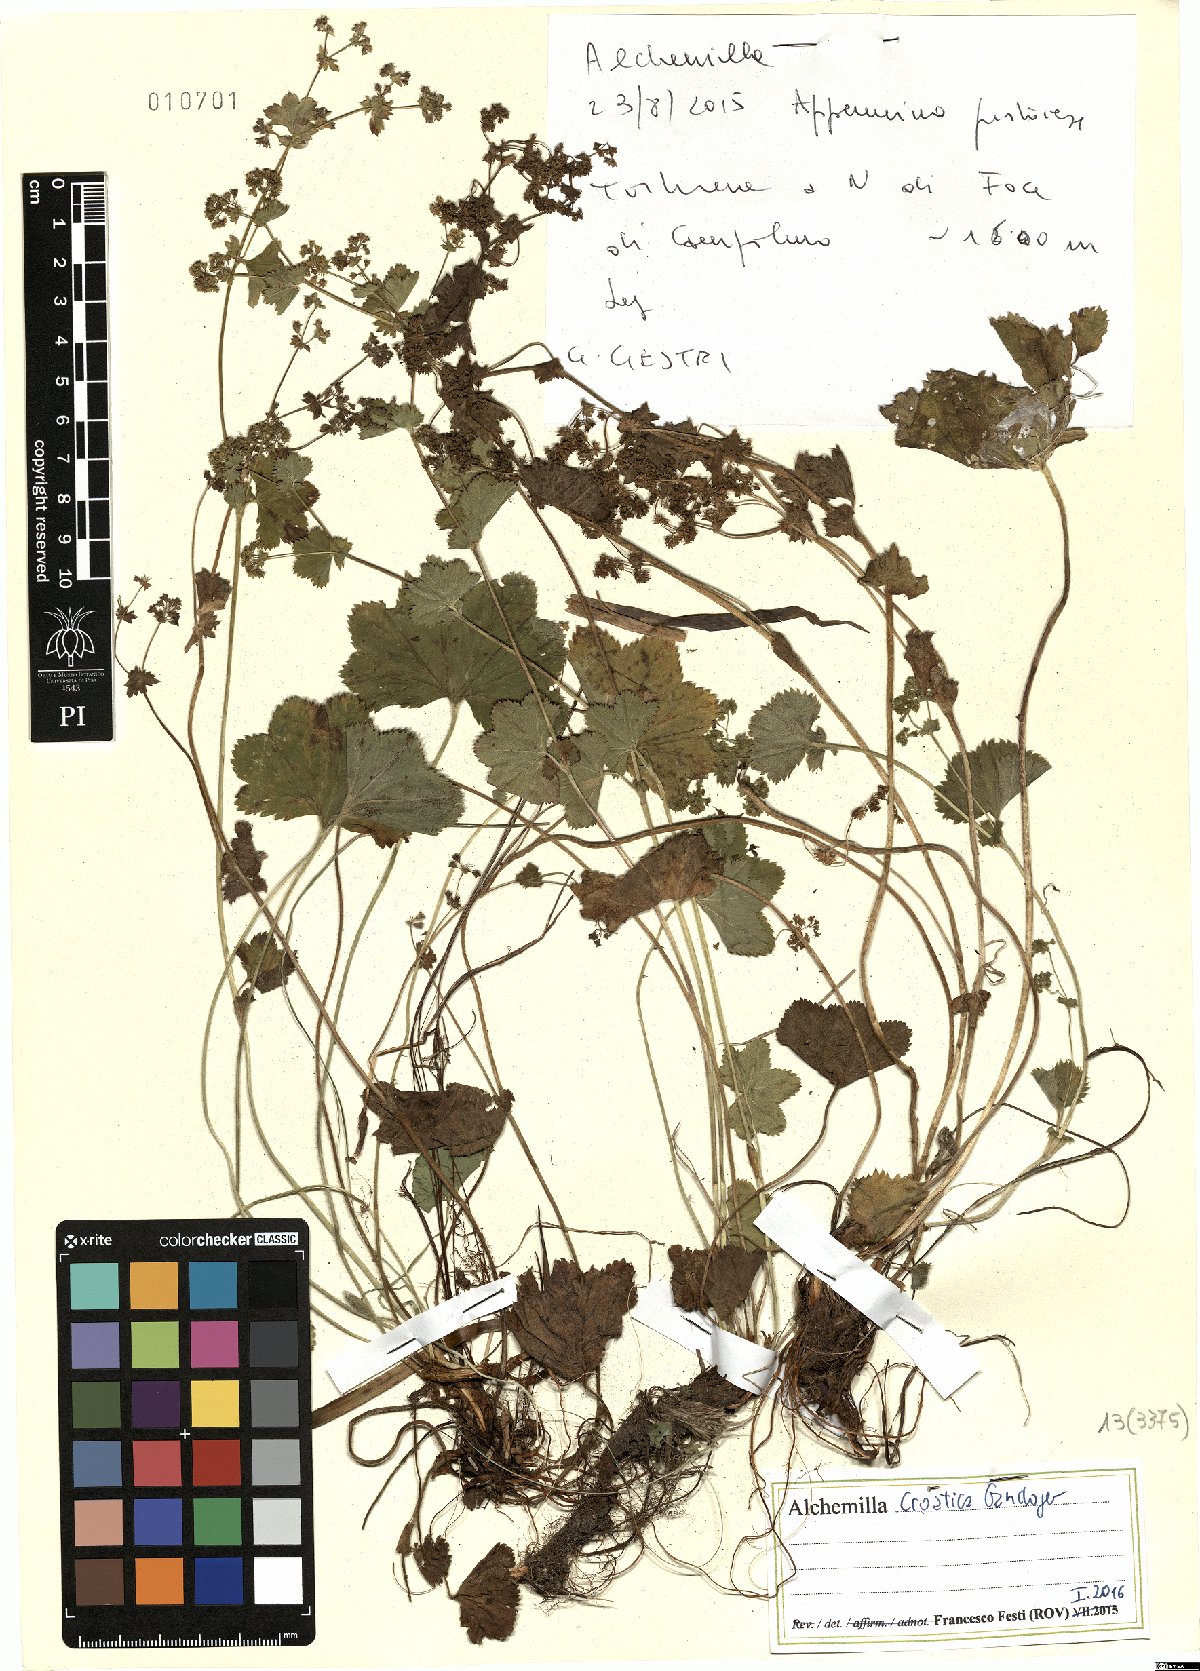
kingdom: Plantae
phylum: Tracheophyta
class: Magnoliopsida
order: Rosales
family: Rosaceae
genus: Alchemilla
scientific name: Alchemilla croatica
